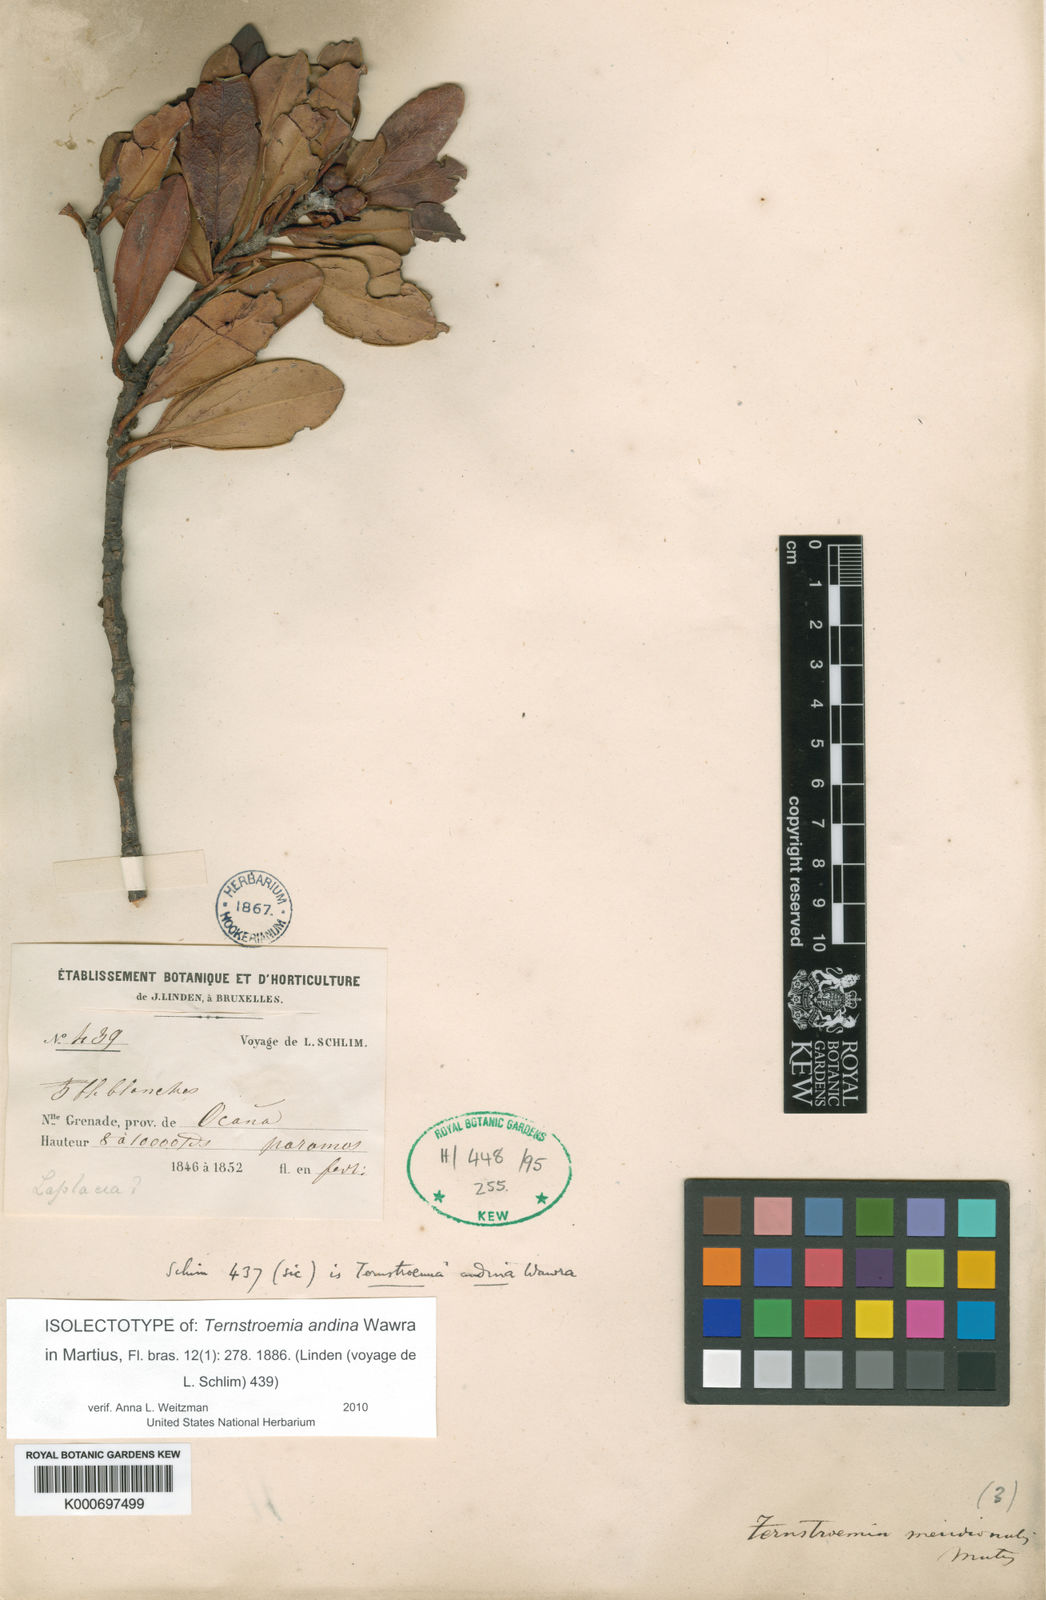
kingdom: Plantae
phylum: Tracheophyta
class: Magnoliopsida
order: Ericales
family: Pentaphylacaceae
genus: Ternstroemia
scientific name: Ternstroemia meridionalis
